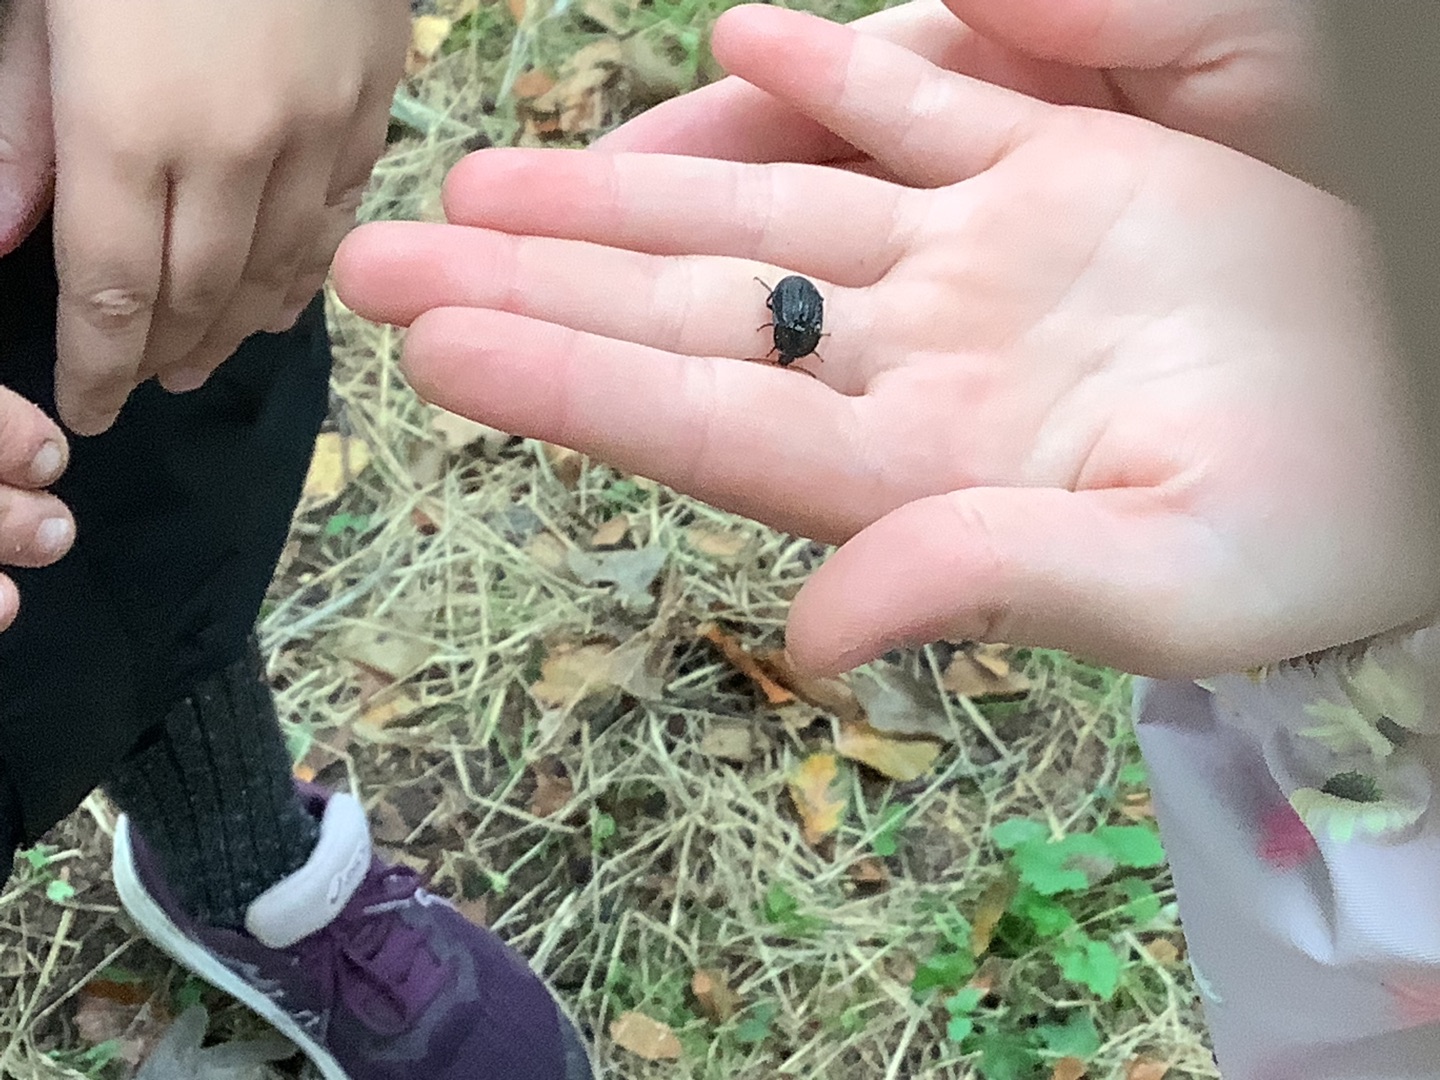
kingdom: Animalia
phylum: Arthropoda
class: Insecta
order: Coleoptera
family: Staphylinidae
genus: Silpha
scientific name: Silpha atrata
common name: Snegleådselbille
